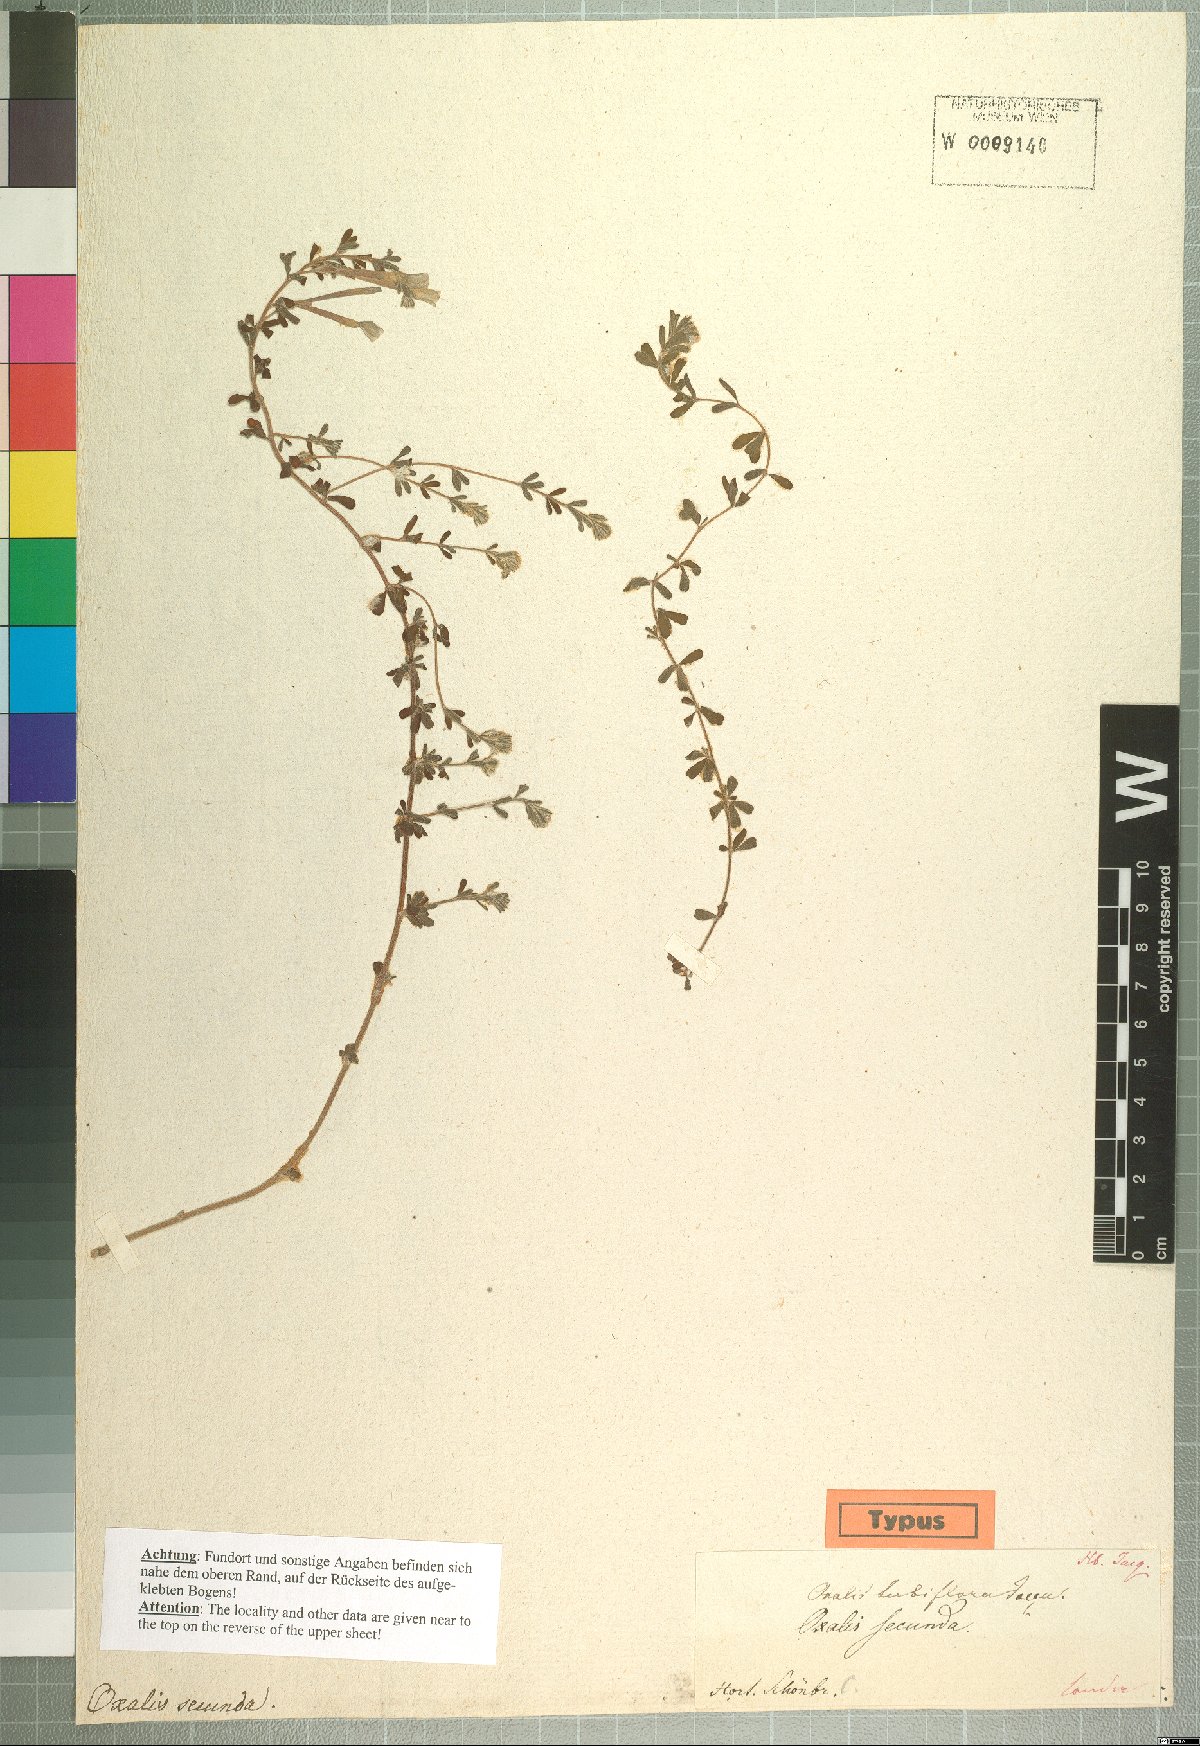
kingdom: Plantae
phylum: Tracheophyta
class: Magnoliopsida
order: Oxalidales
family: Oxalidaceae
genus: Oxalis
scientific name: Oxalis hirta
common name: Tropical woodsorrel
